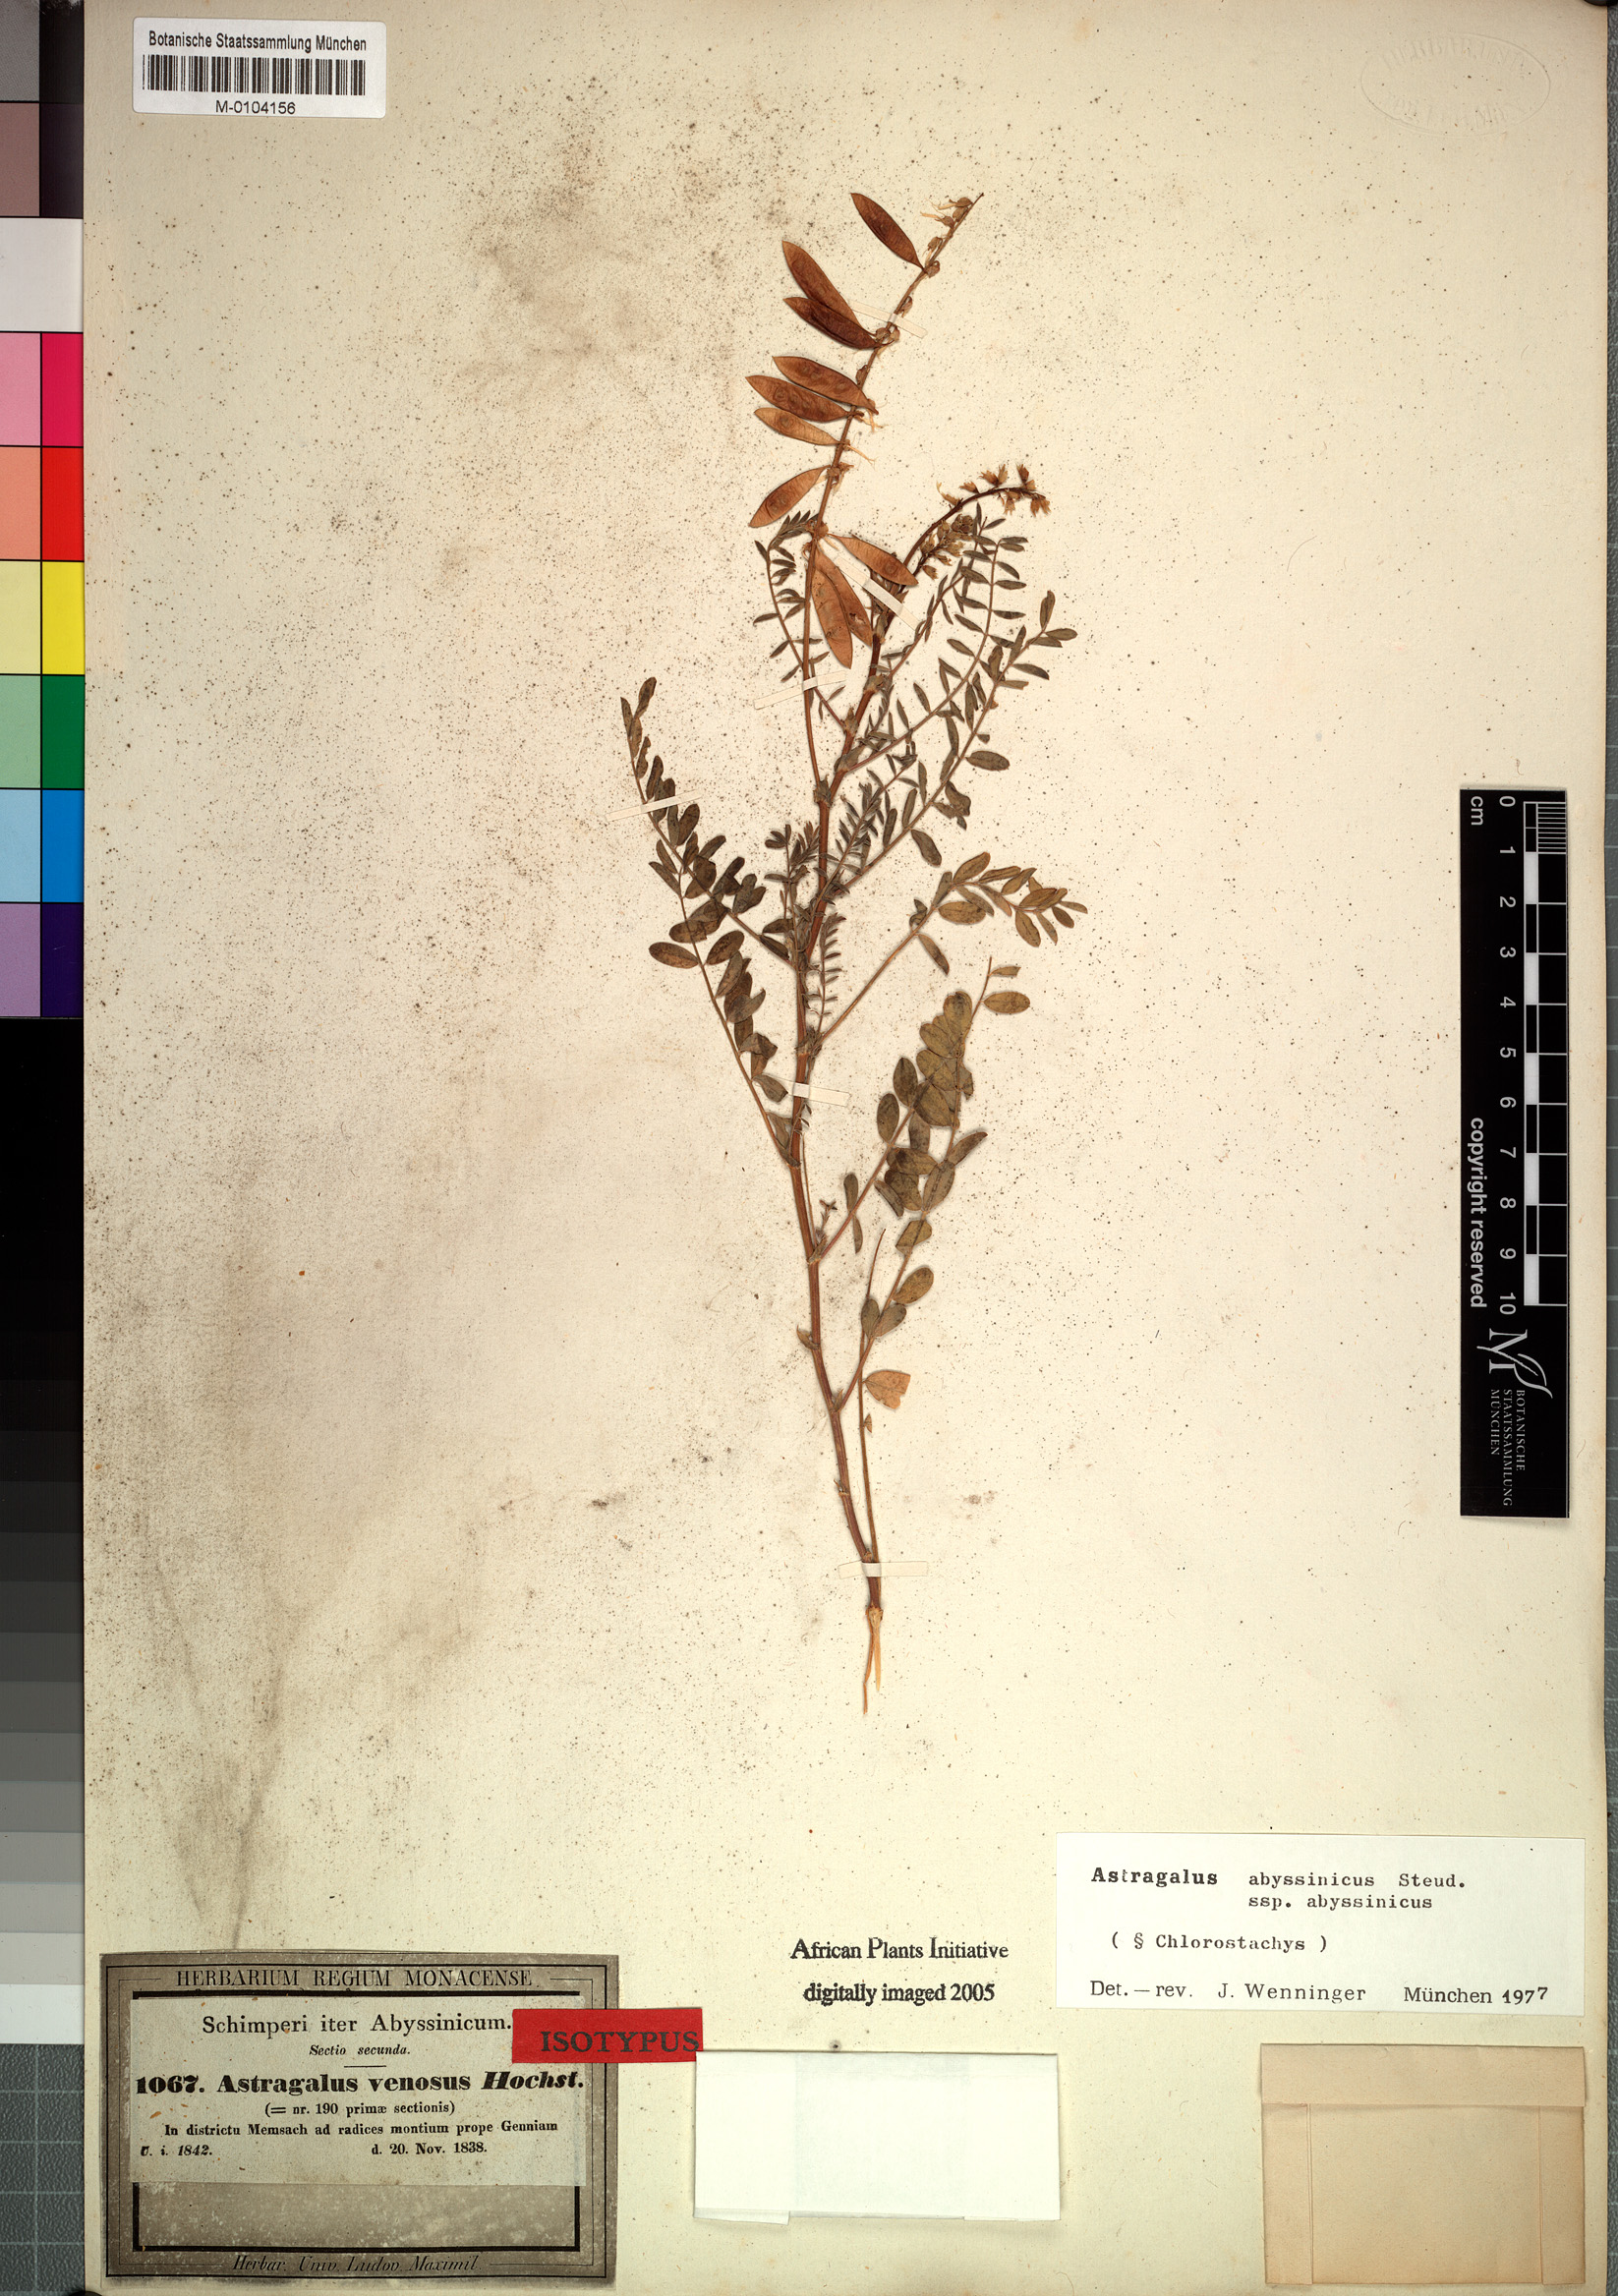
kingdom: Plantae
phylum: Tracheophyta
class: Magnoliopsida
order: Fabales
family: Fabaceae
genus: Astragalus
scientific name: Astragalus atropilosulus
